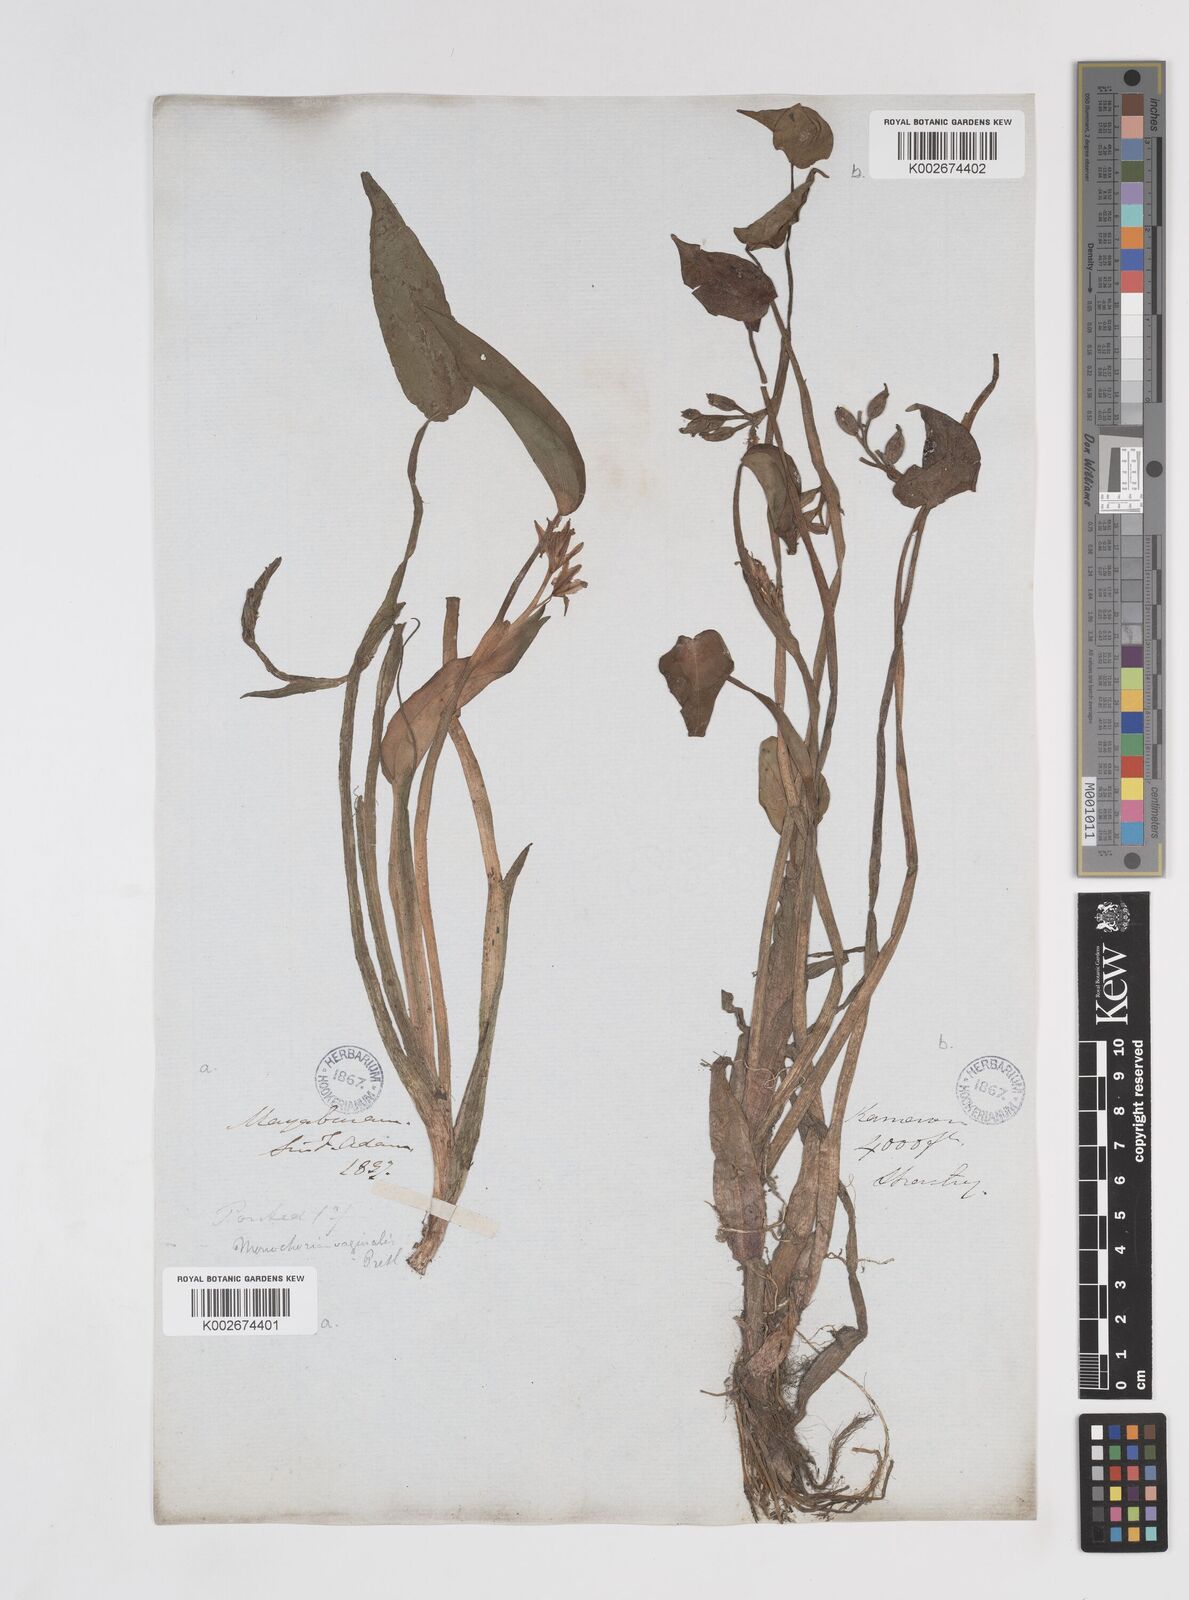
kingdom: Plantae
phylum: Tracheophyta
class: Liliopsida
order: Commelinales
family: Pontederiaceae
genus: Pontederia
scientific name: Pontederia vaginalis
